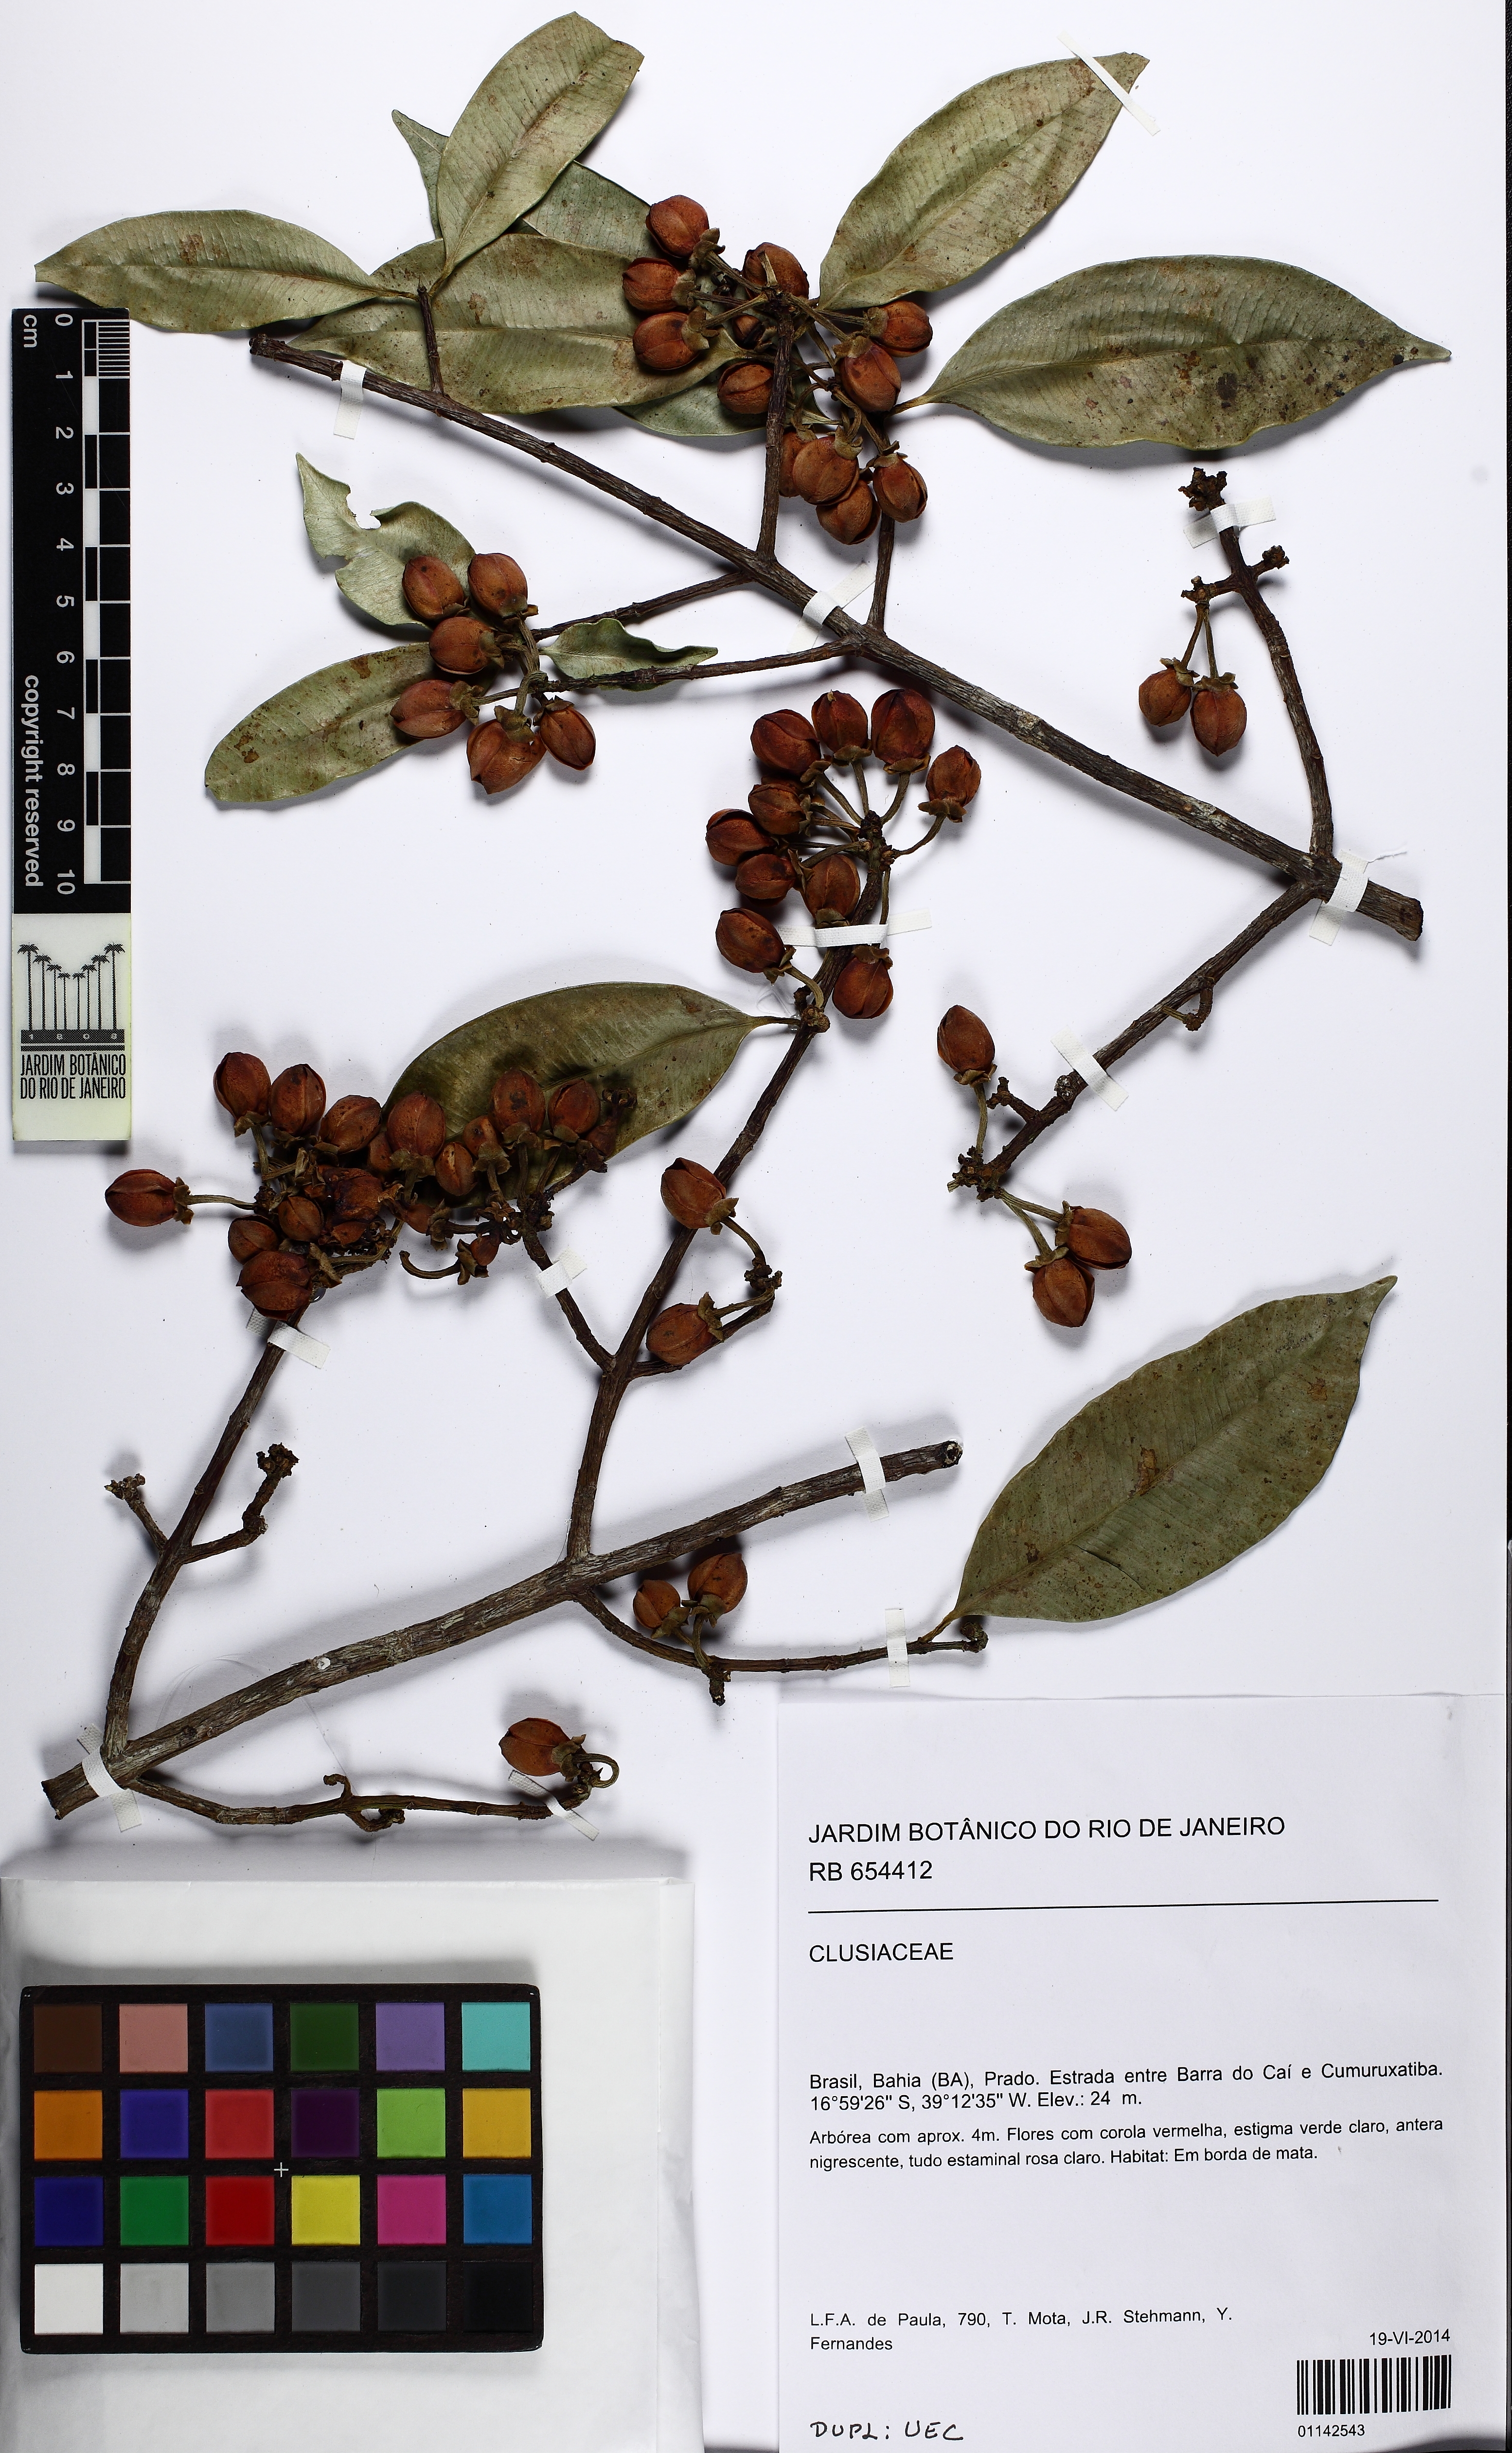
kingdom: Plantae
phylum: Tracheophyta
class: Magnoliopsida
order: Malpighiales
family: Clusiaceae
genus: Symphonia
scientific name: Symphonia globulifera
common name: Boarwood
